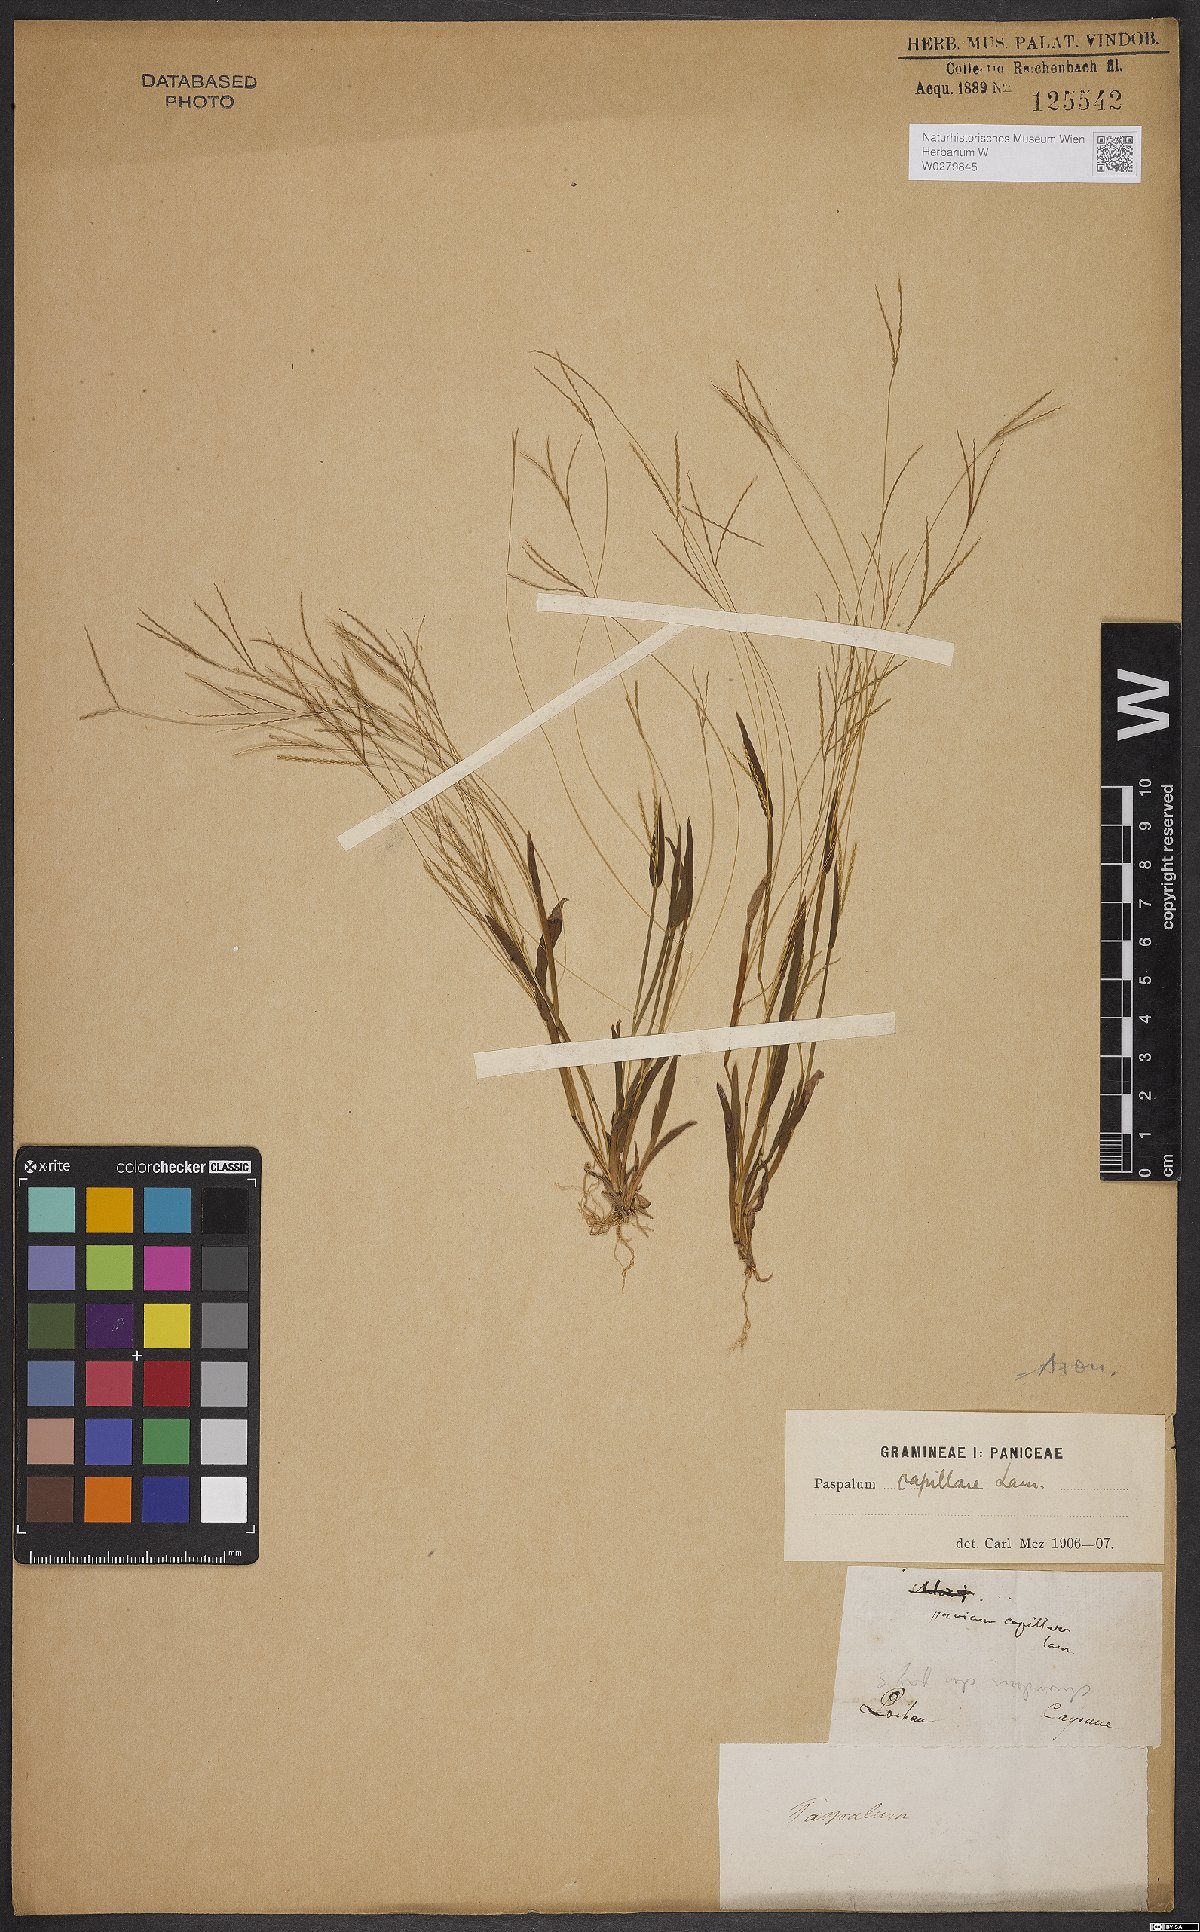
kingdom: Plantae
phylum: Tracheophyta
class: Liliopsida
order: Poales
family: Poaceae
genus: Axonopus
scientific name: Axonopus capillaris
